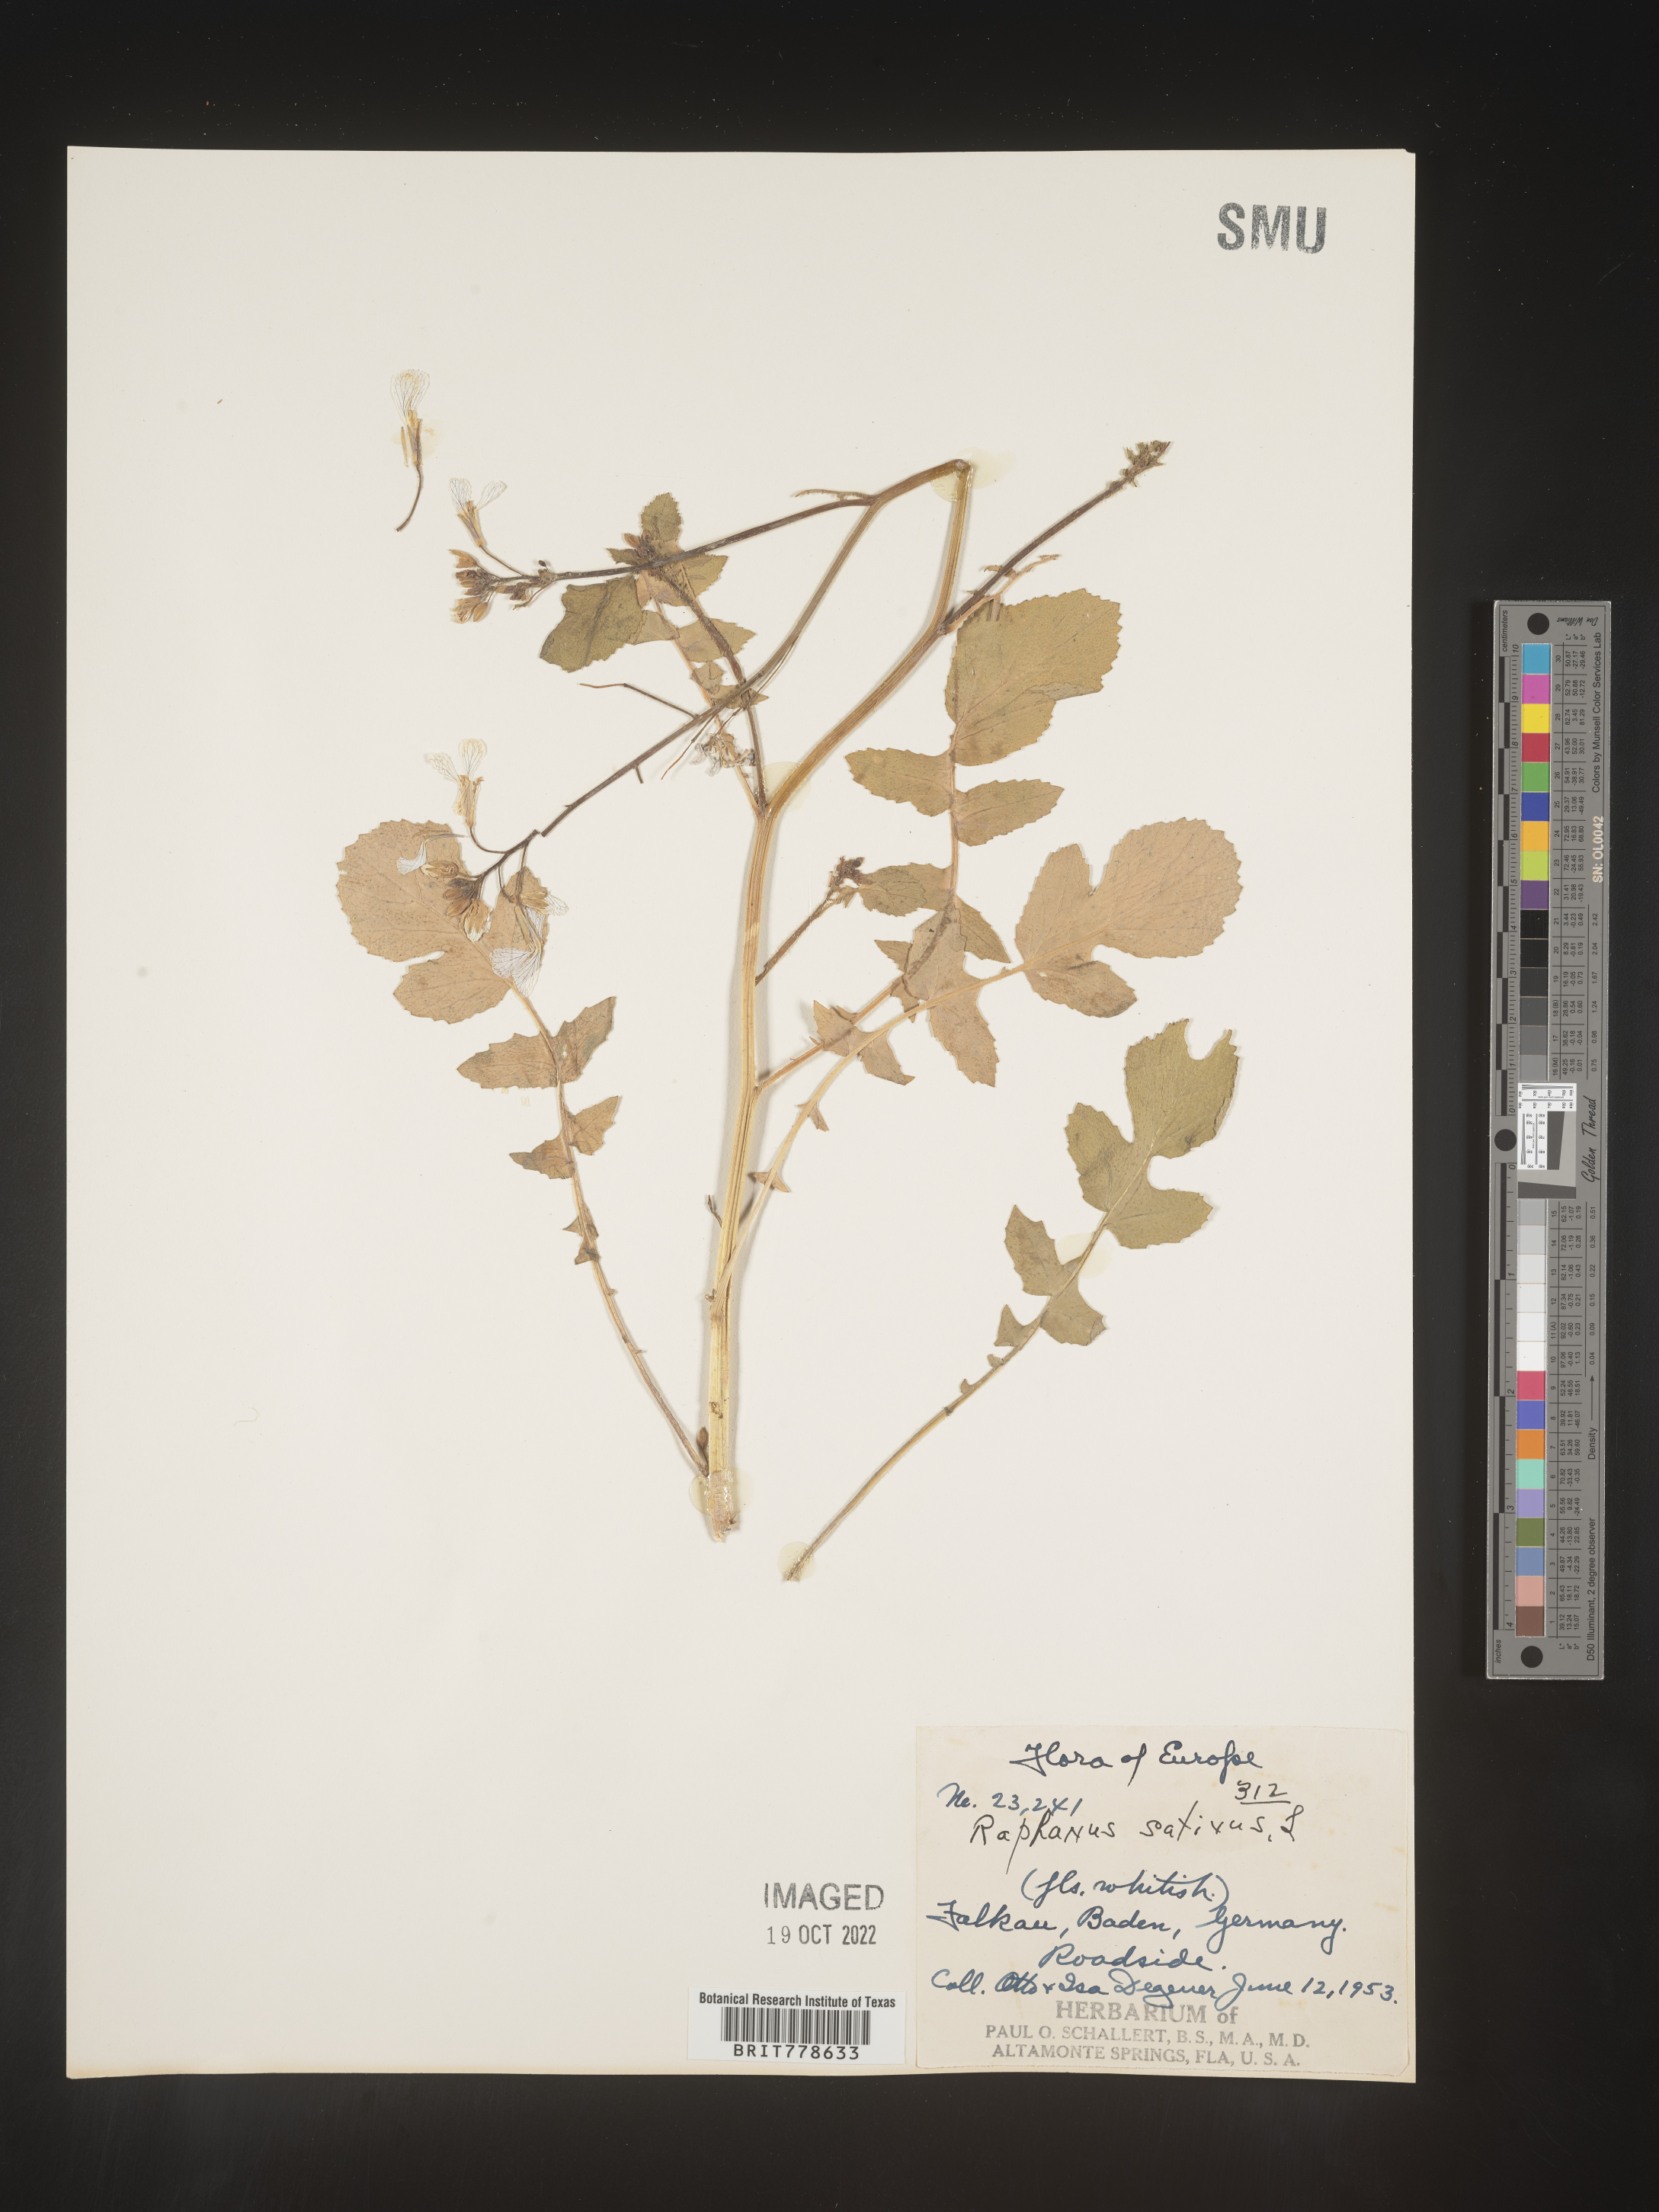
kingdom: Plantae
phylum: Tracheophyta
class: Magnoliopsida
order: Brassicales
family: Brassicaceae
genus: Raphanus
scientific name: Raphanus raphanistrum
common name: Wild radish
